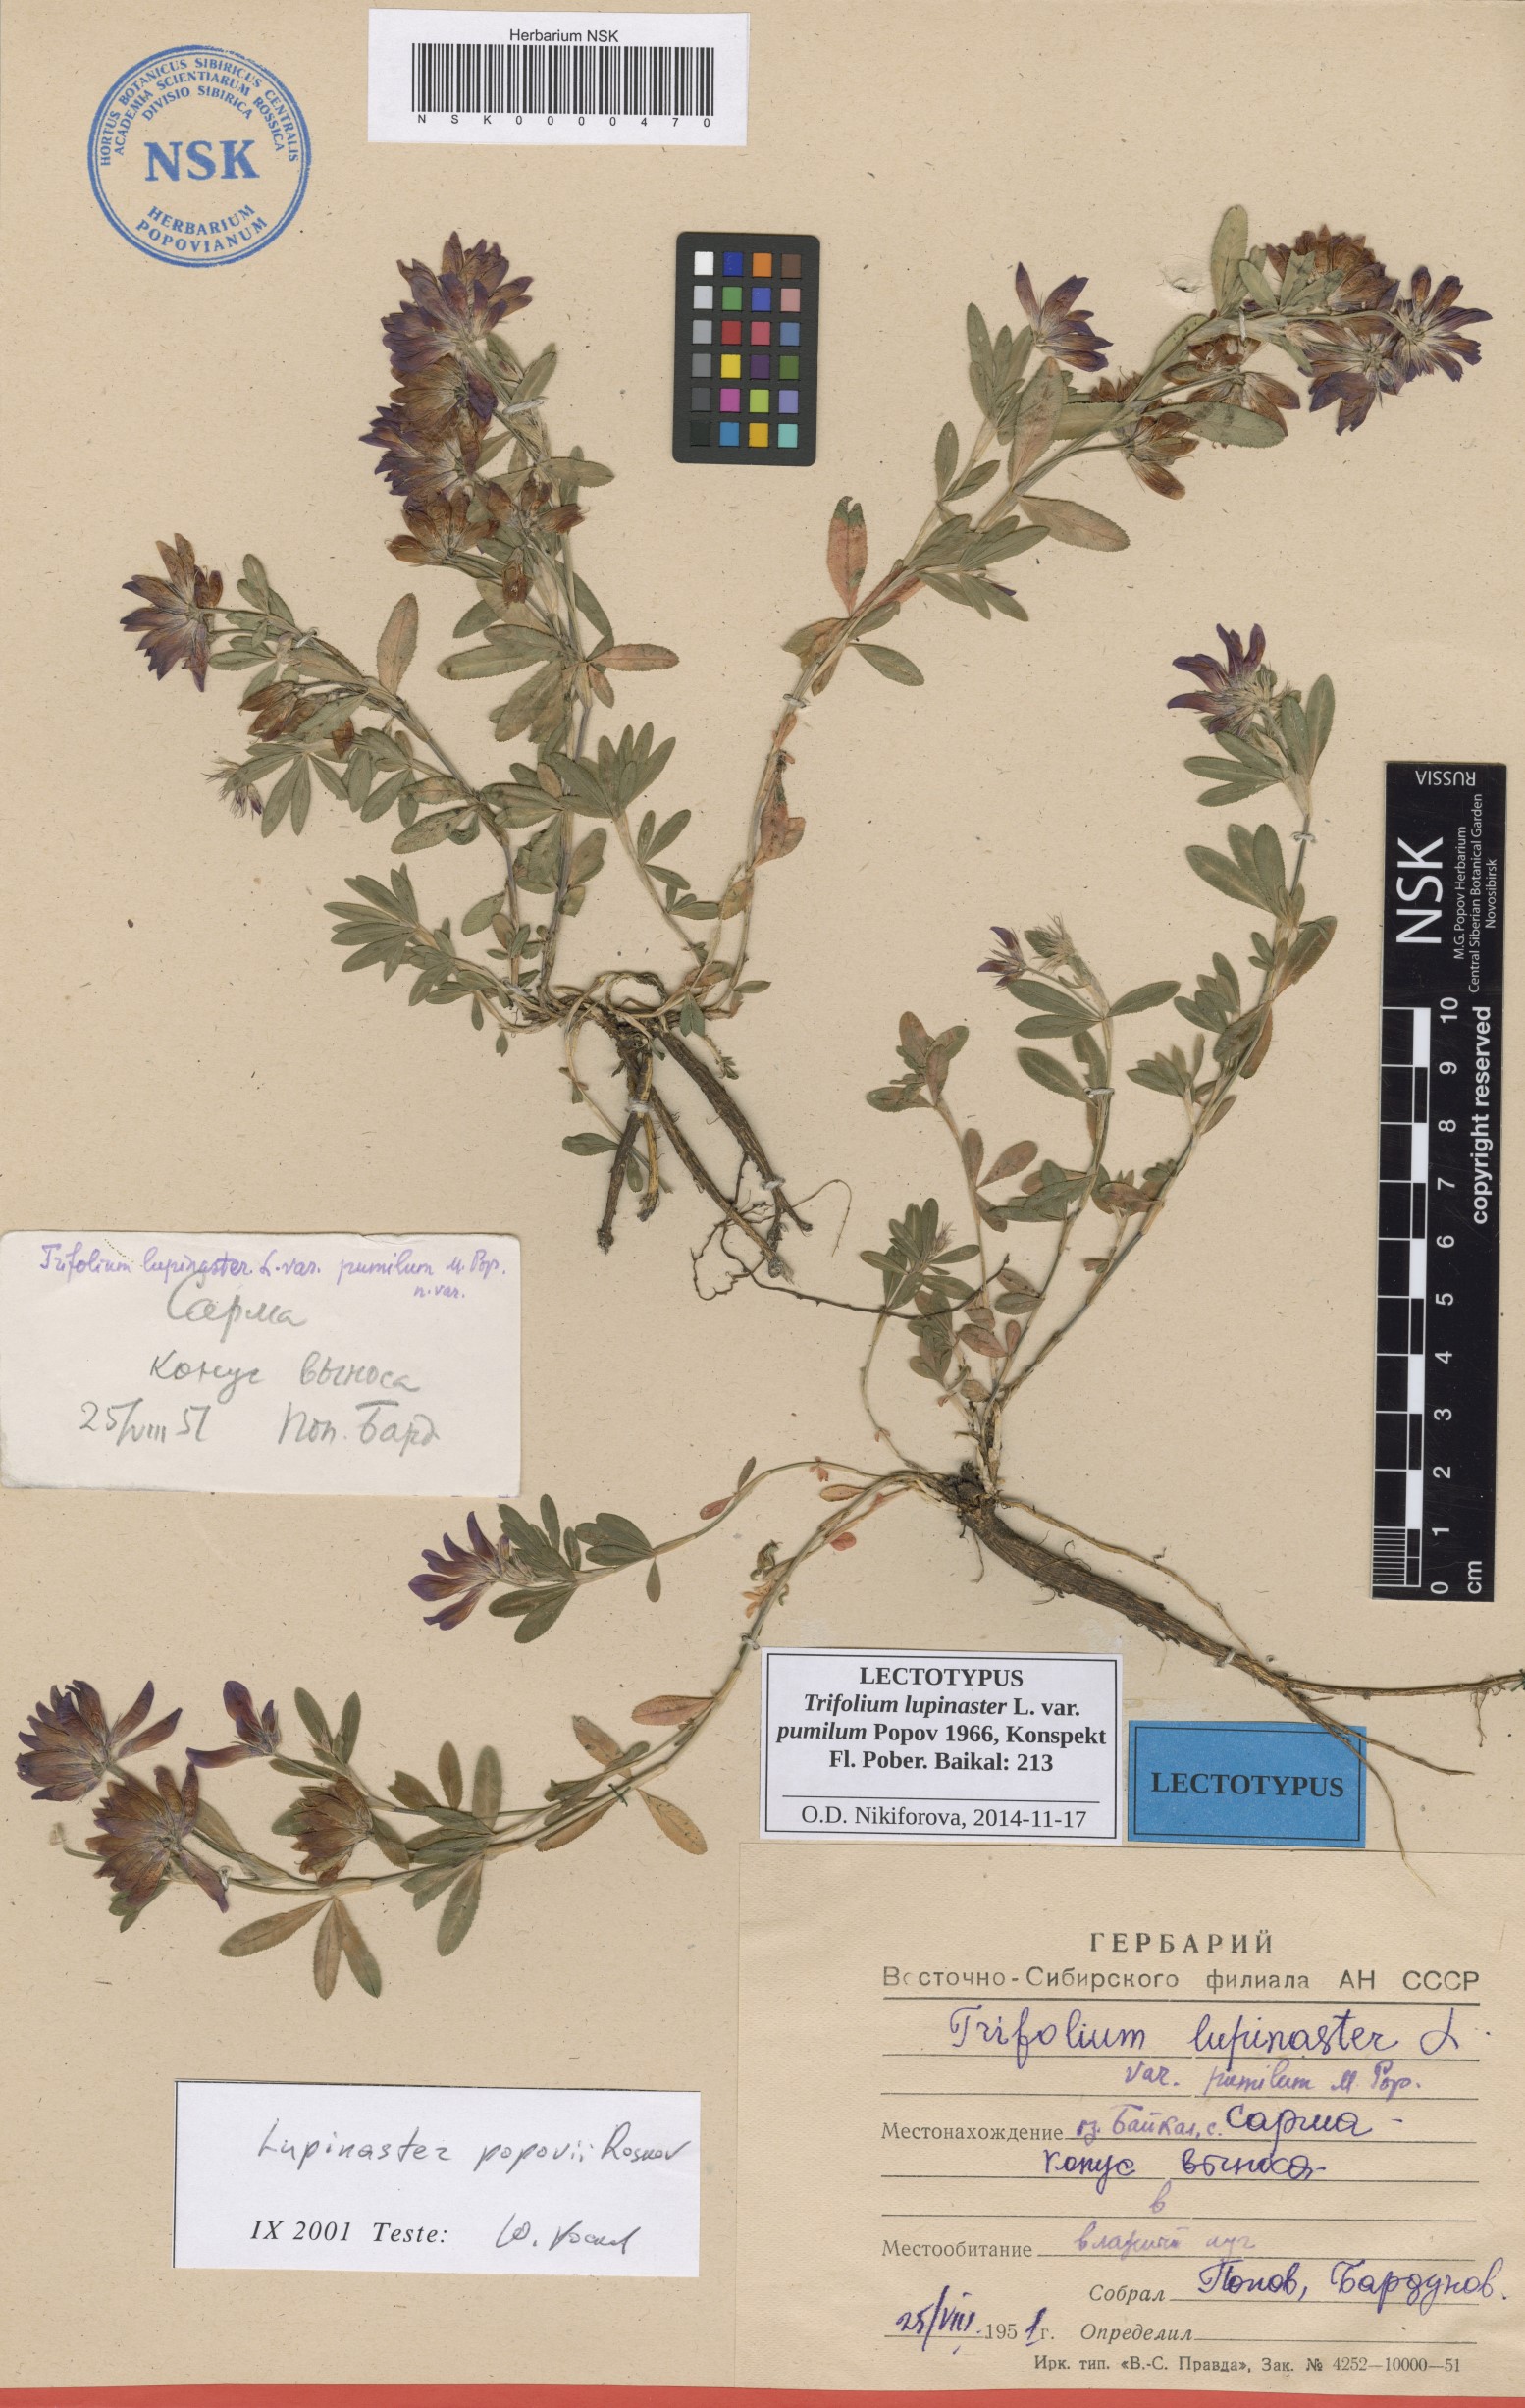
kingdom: Plantae
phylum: Tracheophyta
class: Magnoliopsida
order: Fabales
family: Fabaceae
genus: Trifolium
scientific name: Trifolium lupinaster
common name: Lupine clover
